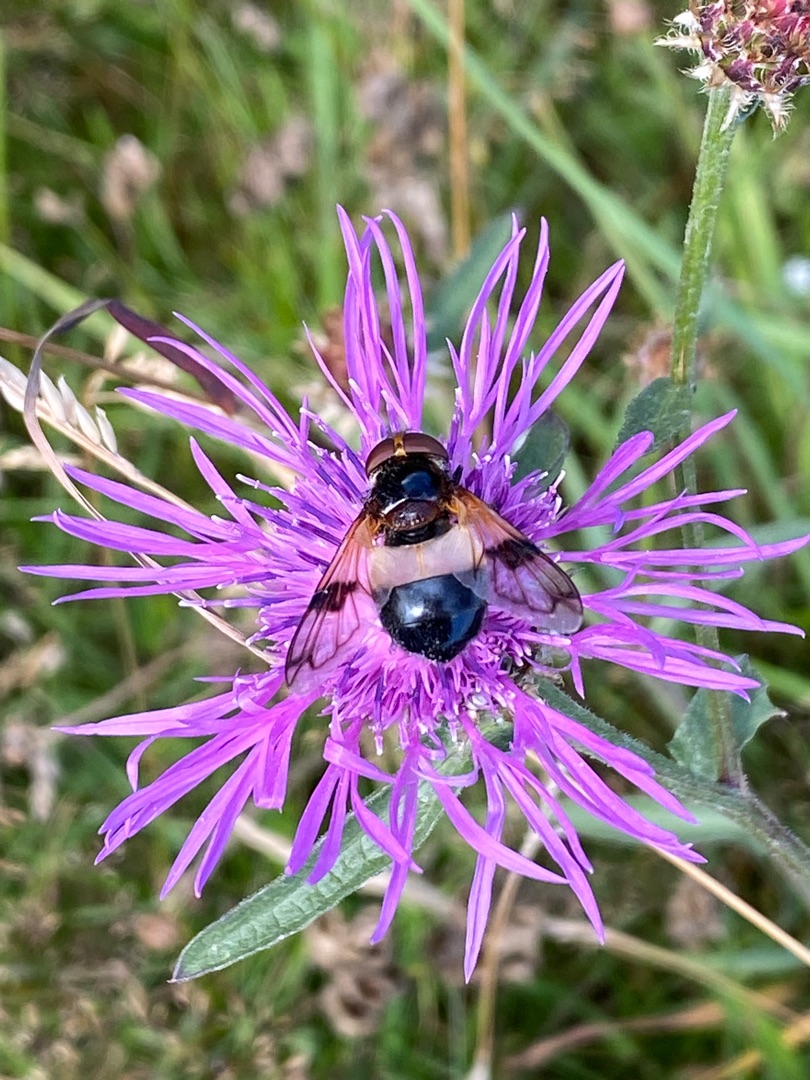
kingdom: Animalia
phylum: Arthropoda
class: Insecta
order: Diptera
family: Syrphidae
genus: Volucella
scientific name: Volucella pellucens
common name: Hvidbåndet humlesvirreflue
